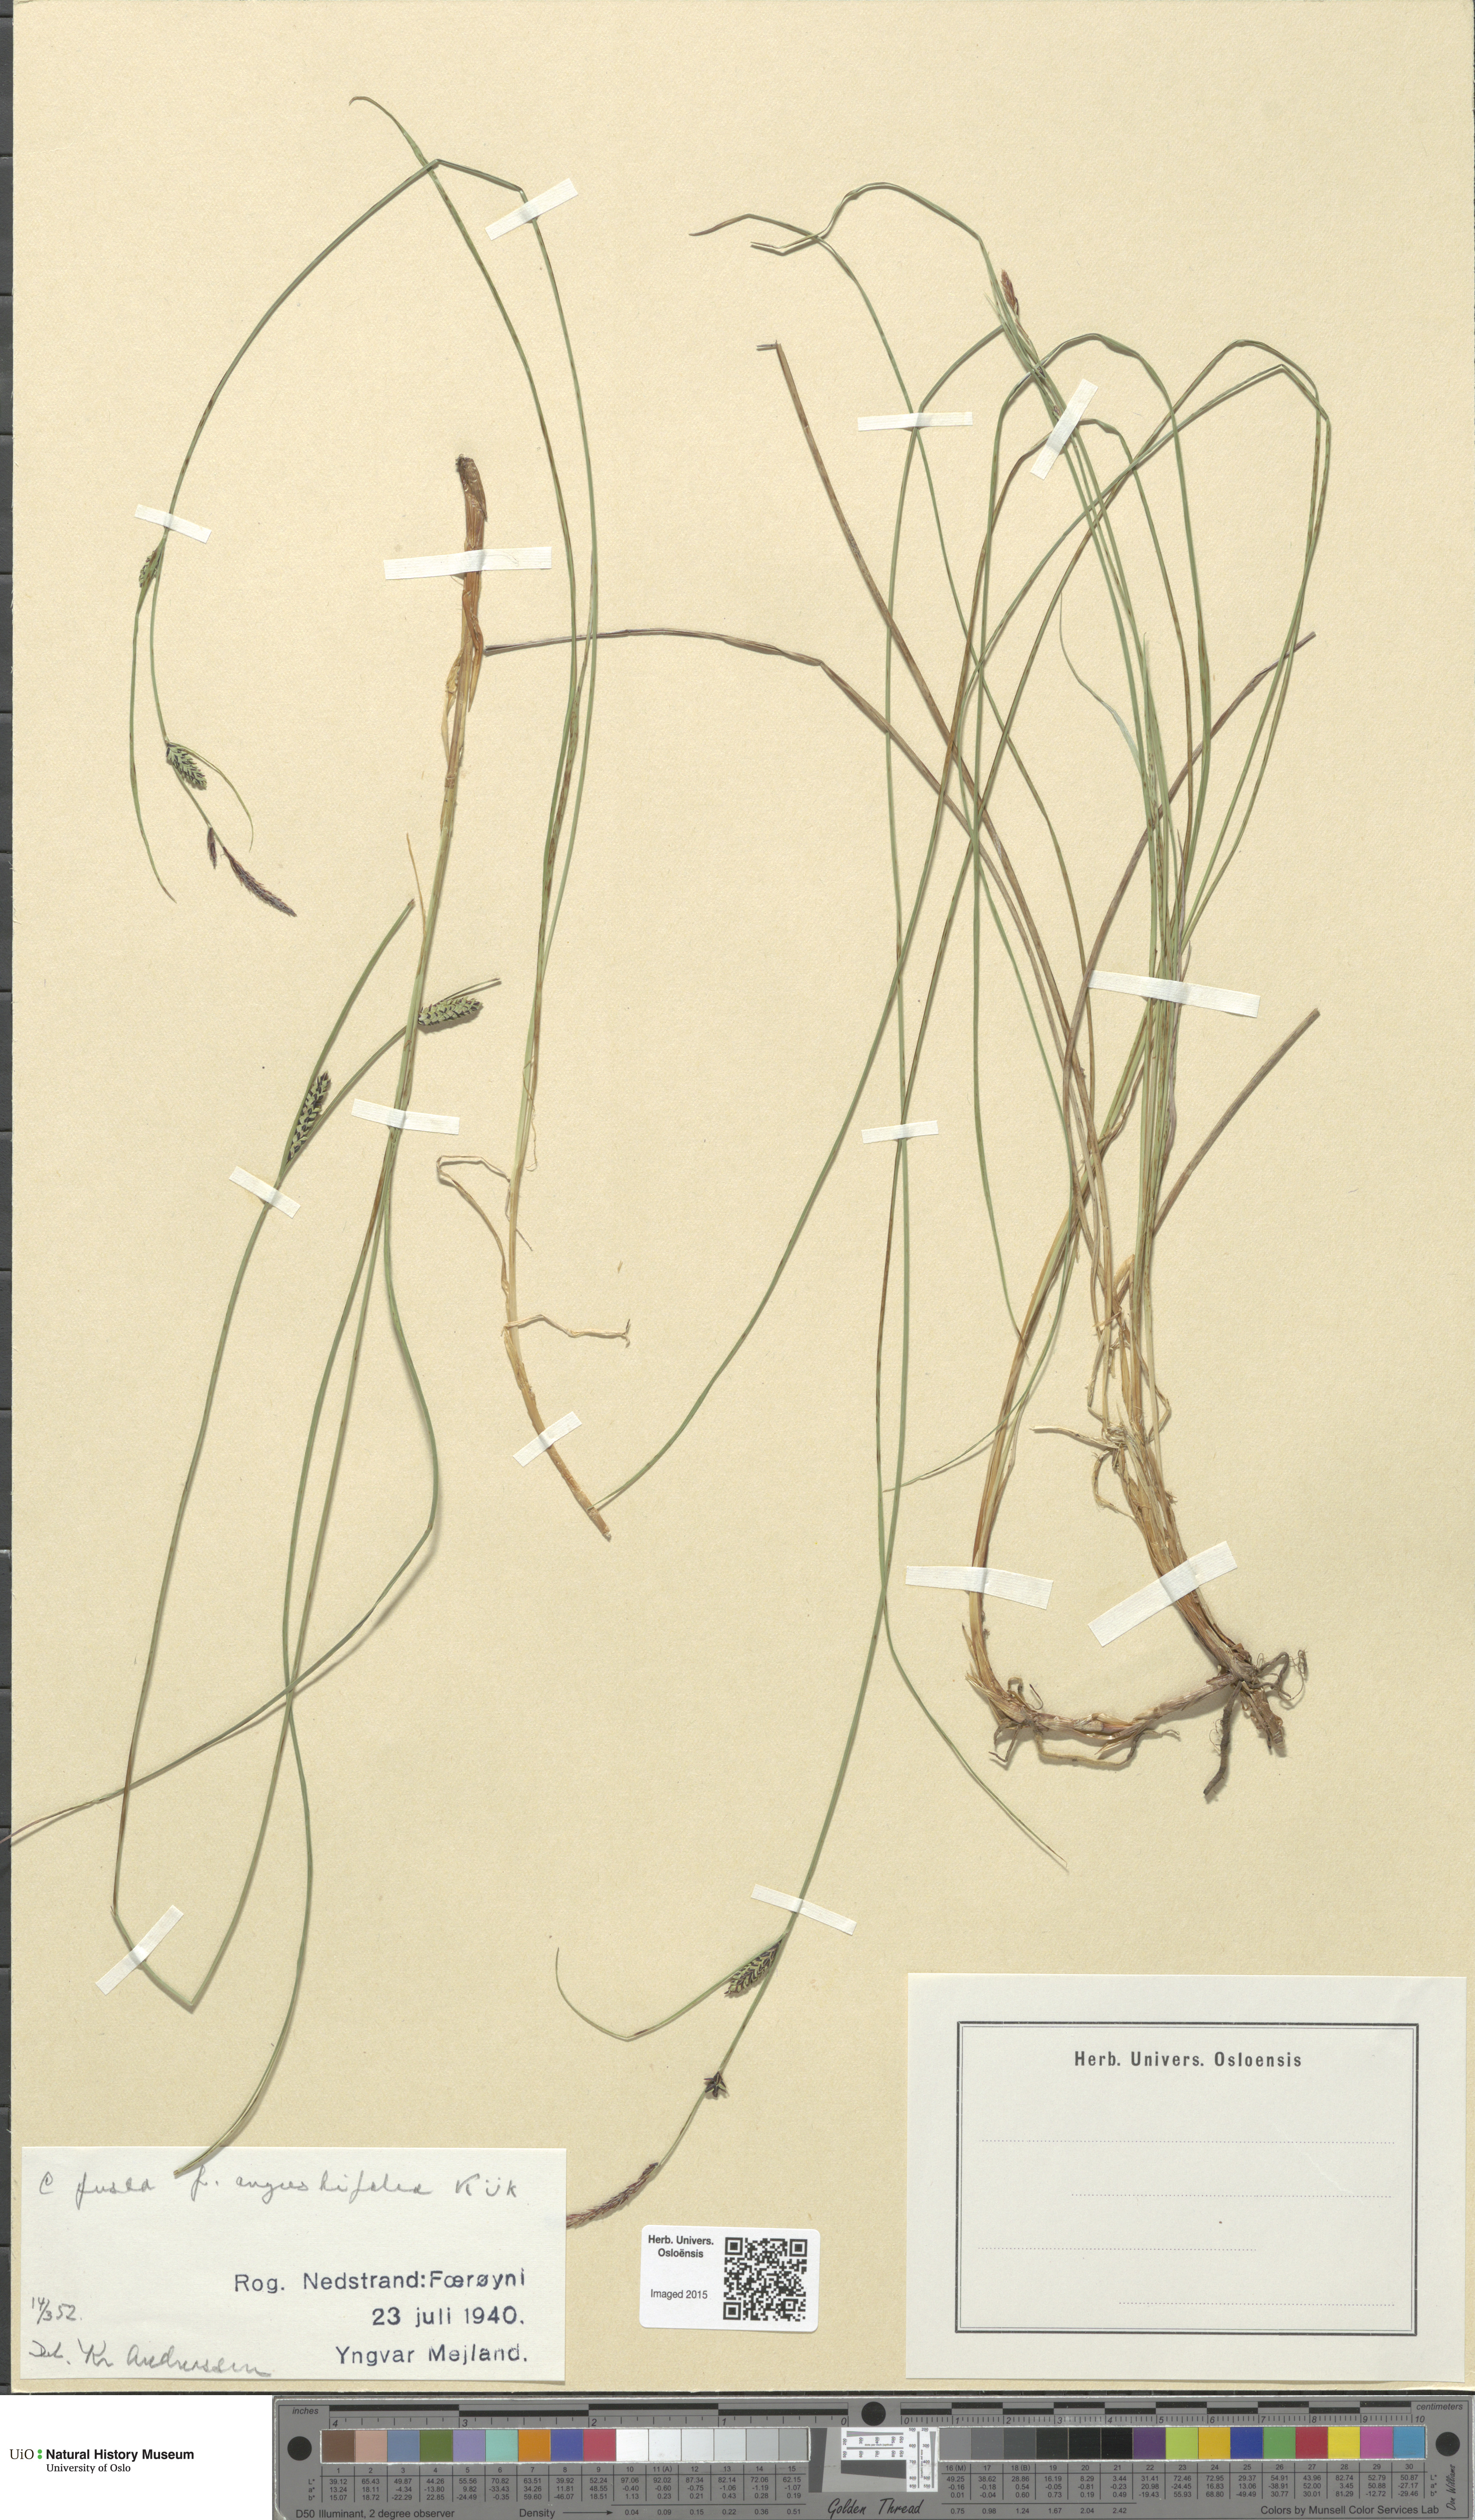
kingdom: Plantae
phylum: Tracheophyta
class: Liliopsida
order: Poales
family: Cyperaceae
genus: Carex
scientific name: Carex nigra
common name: Common sedge
